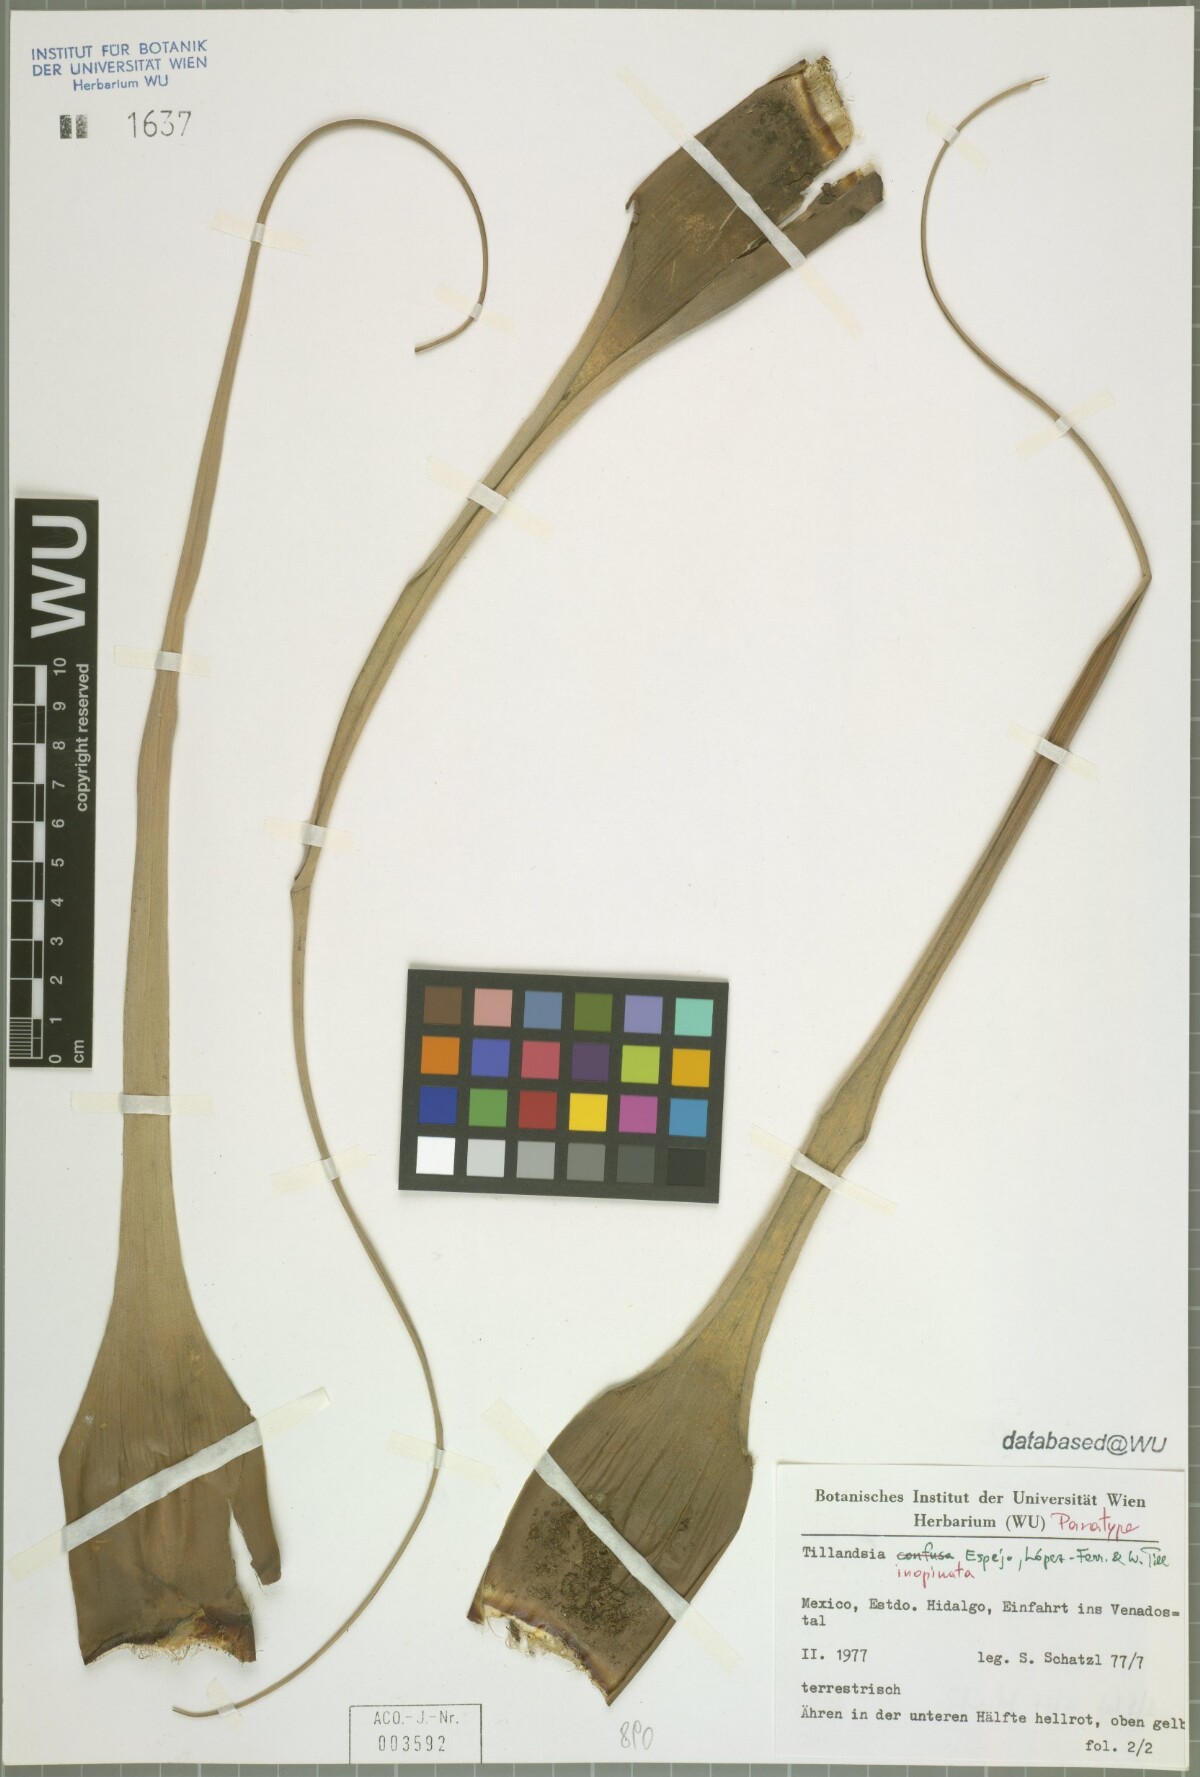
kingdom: Plantae
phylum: Tracheophyta
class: Liliopsida
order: Poales
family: Bromeliaceae
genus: Tillandsia
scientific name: Tillandsia inopinata
